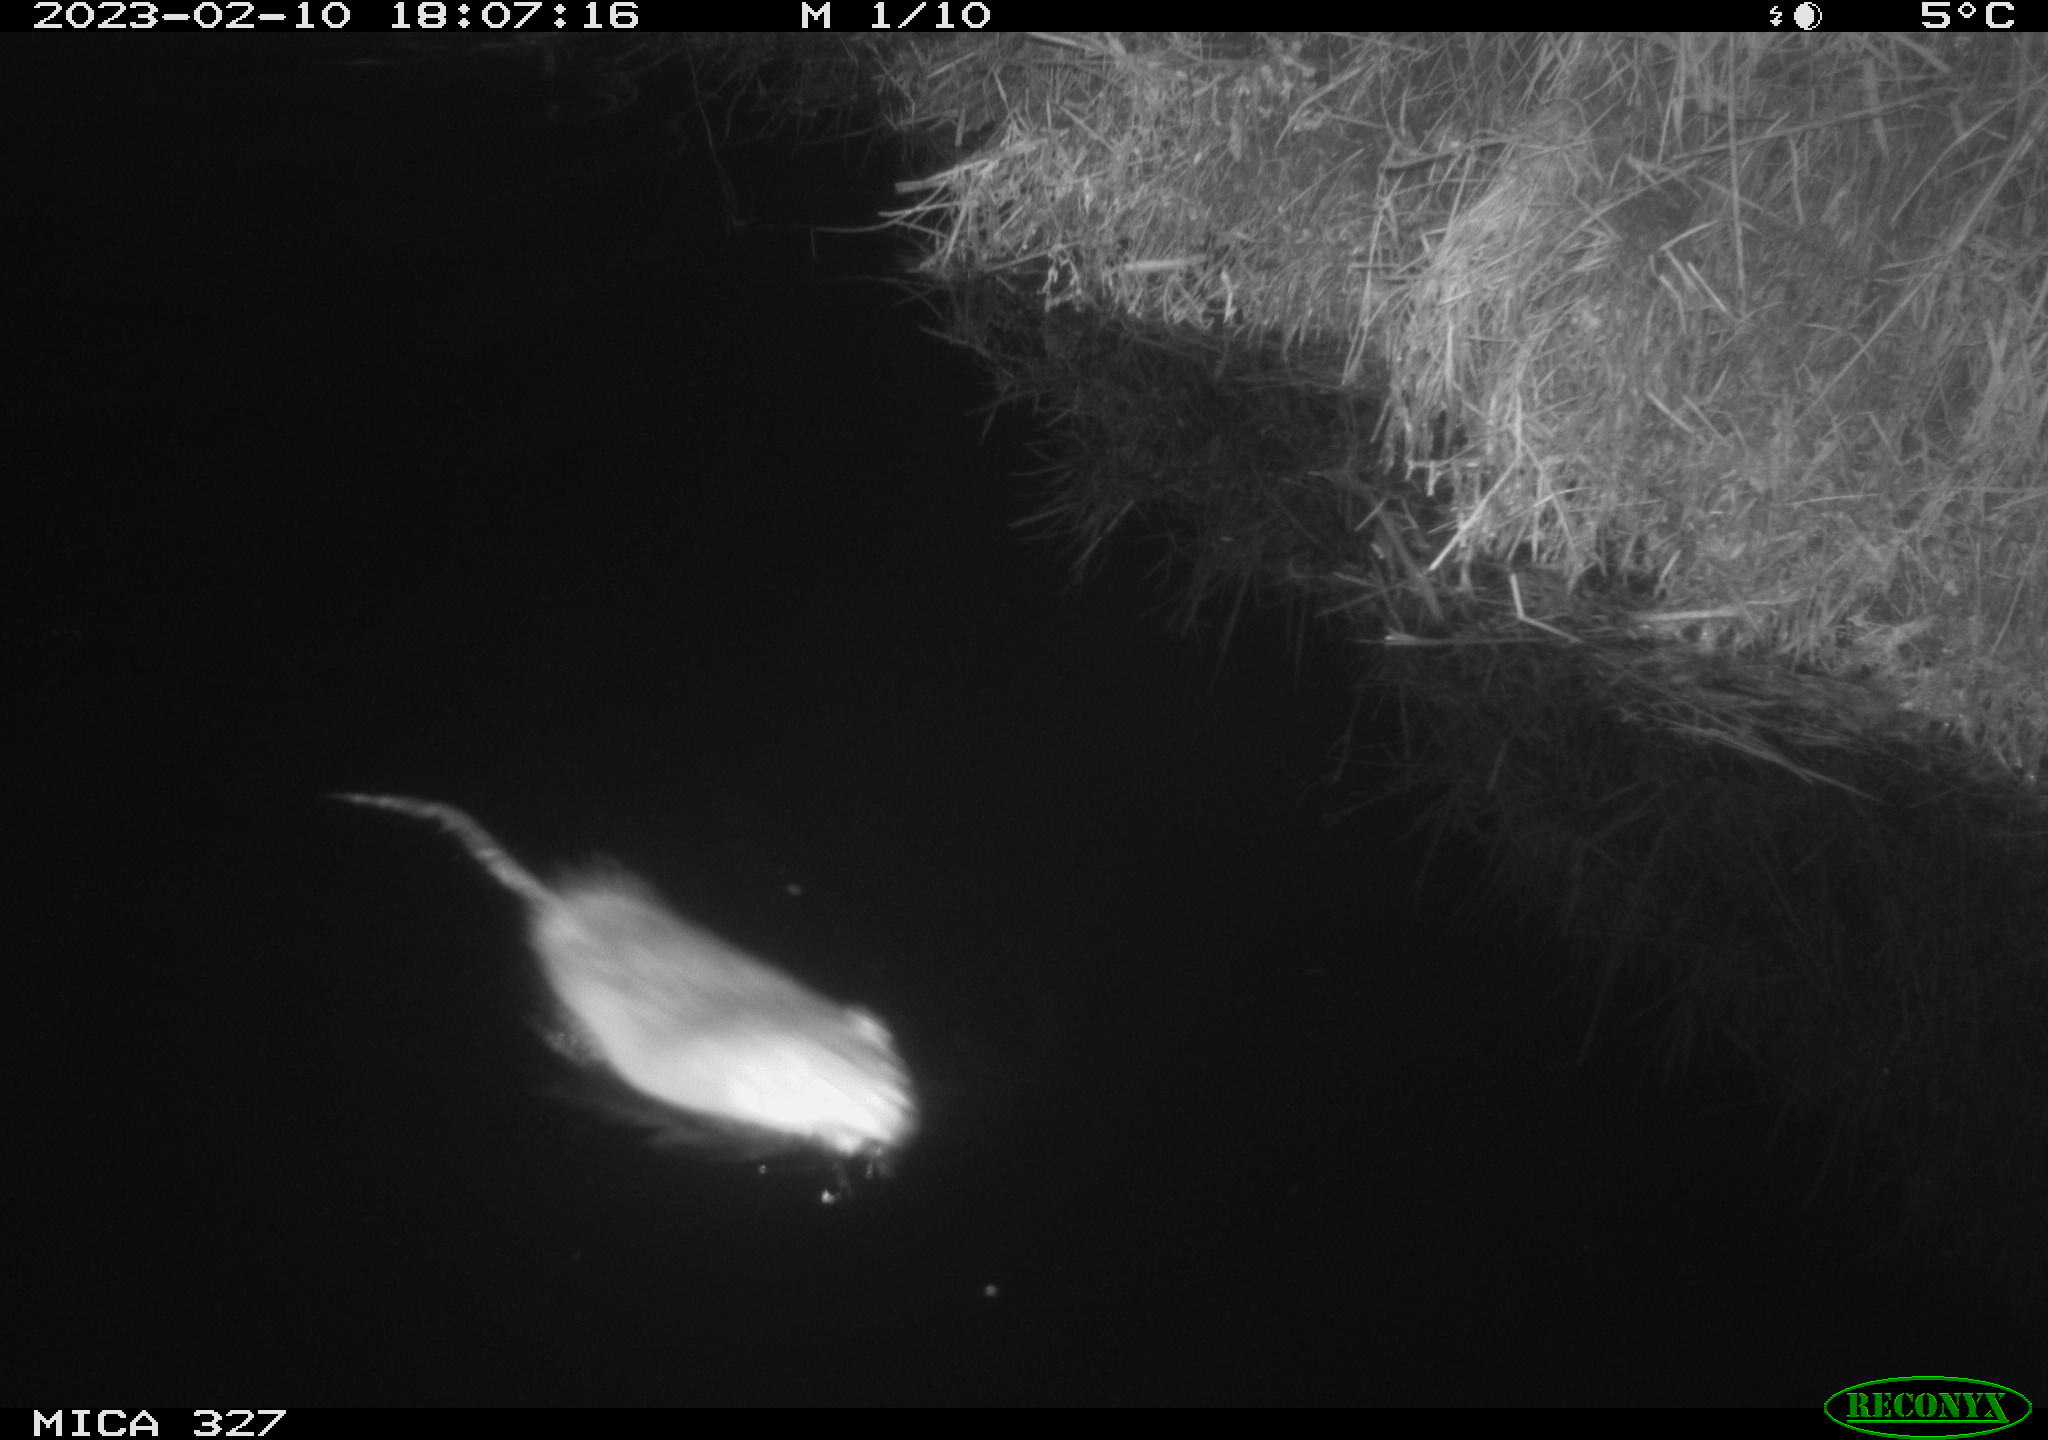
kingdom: Animalia
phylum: Chordata
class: Mammalia
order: Rodentia
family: Cricetidae
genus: Ondatra
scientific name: Ondatra zibethicus
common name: Muskrat
